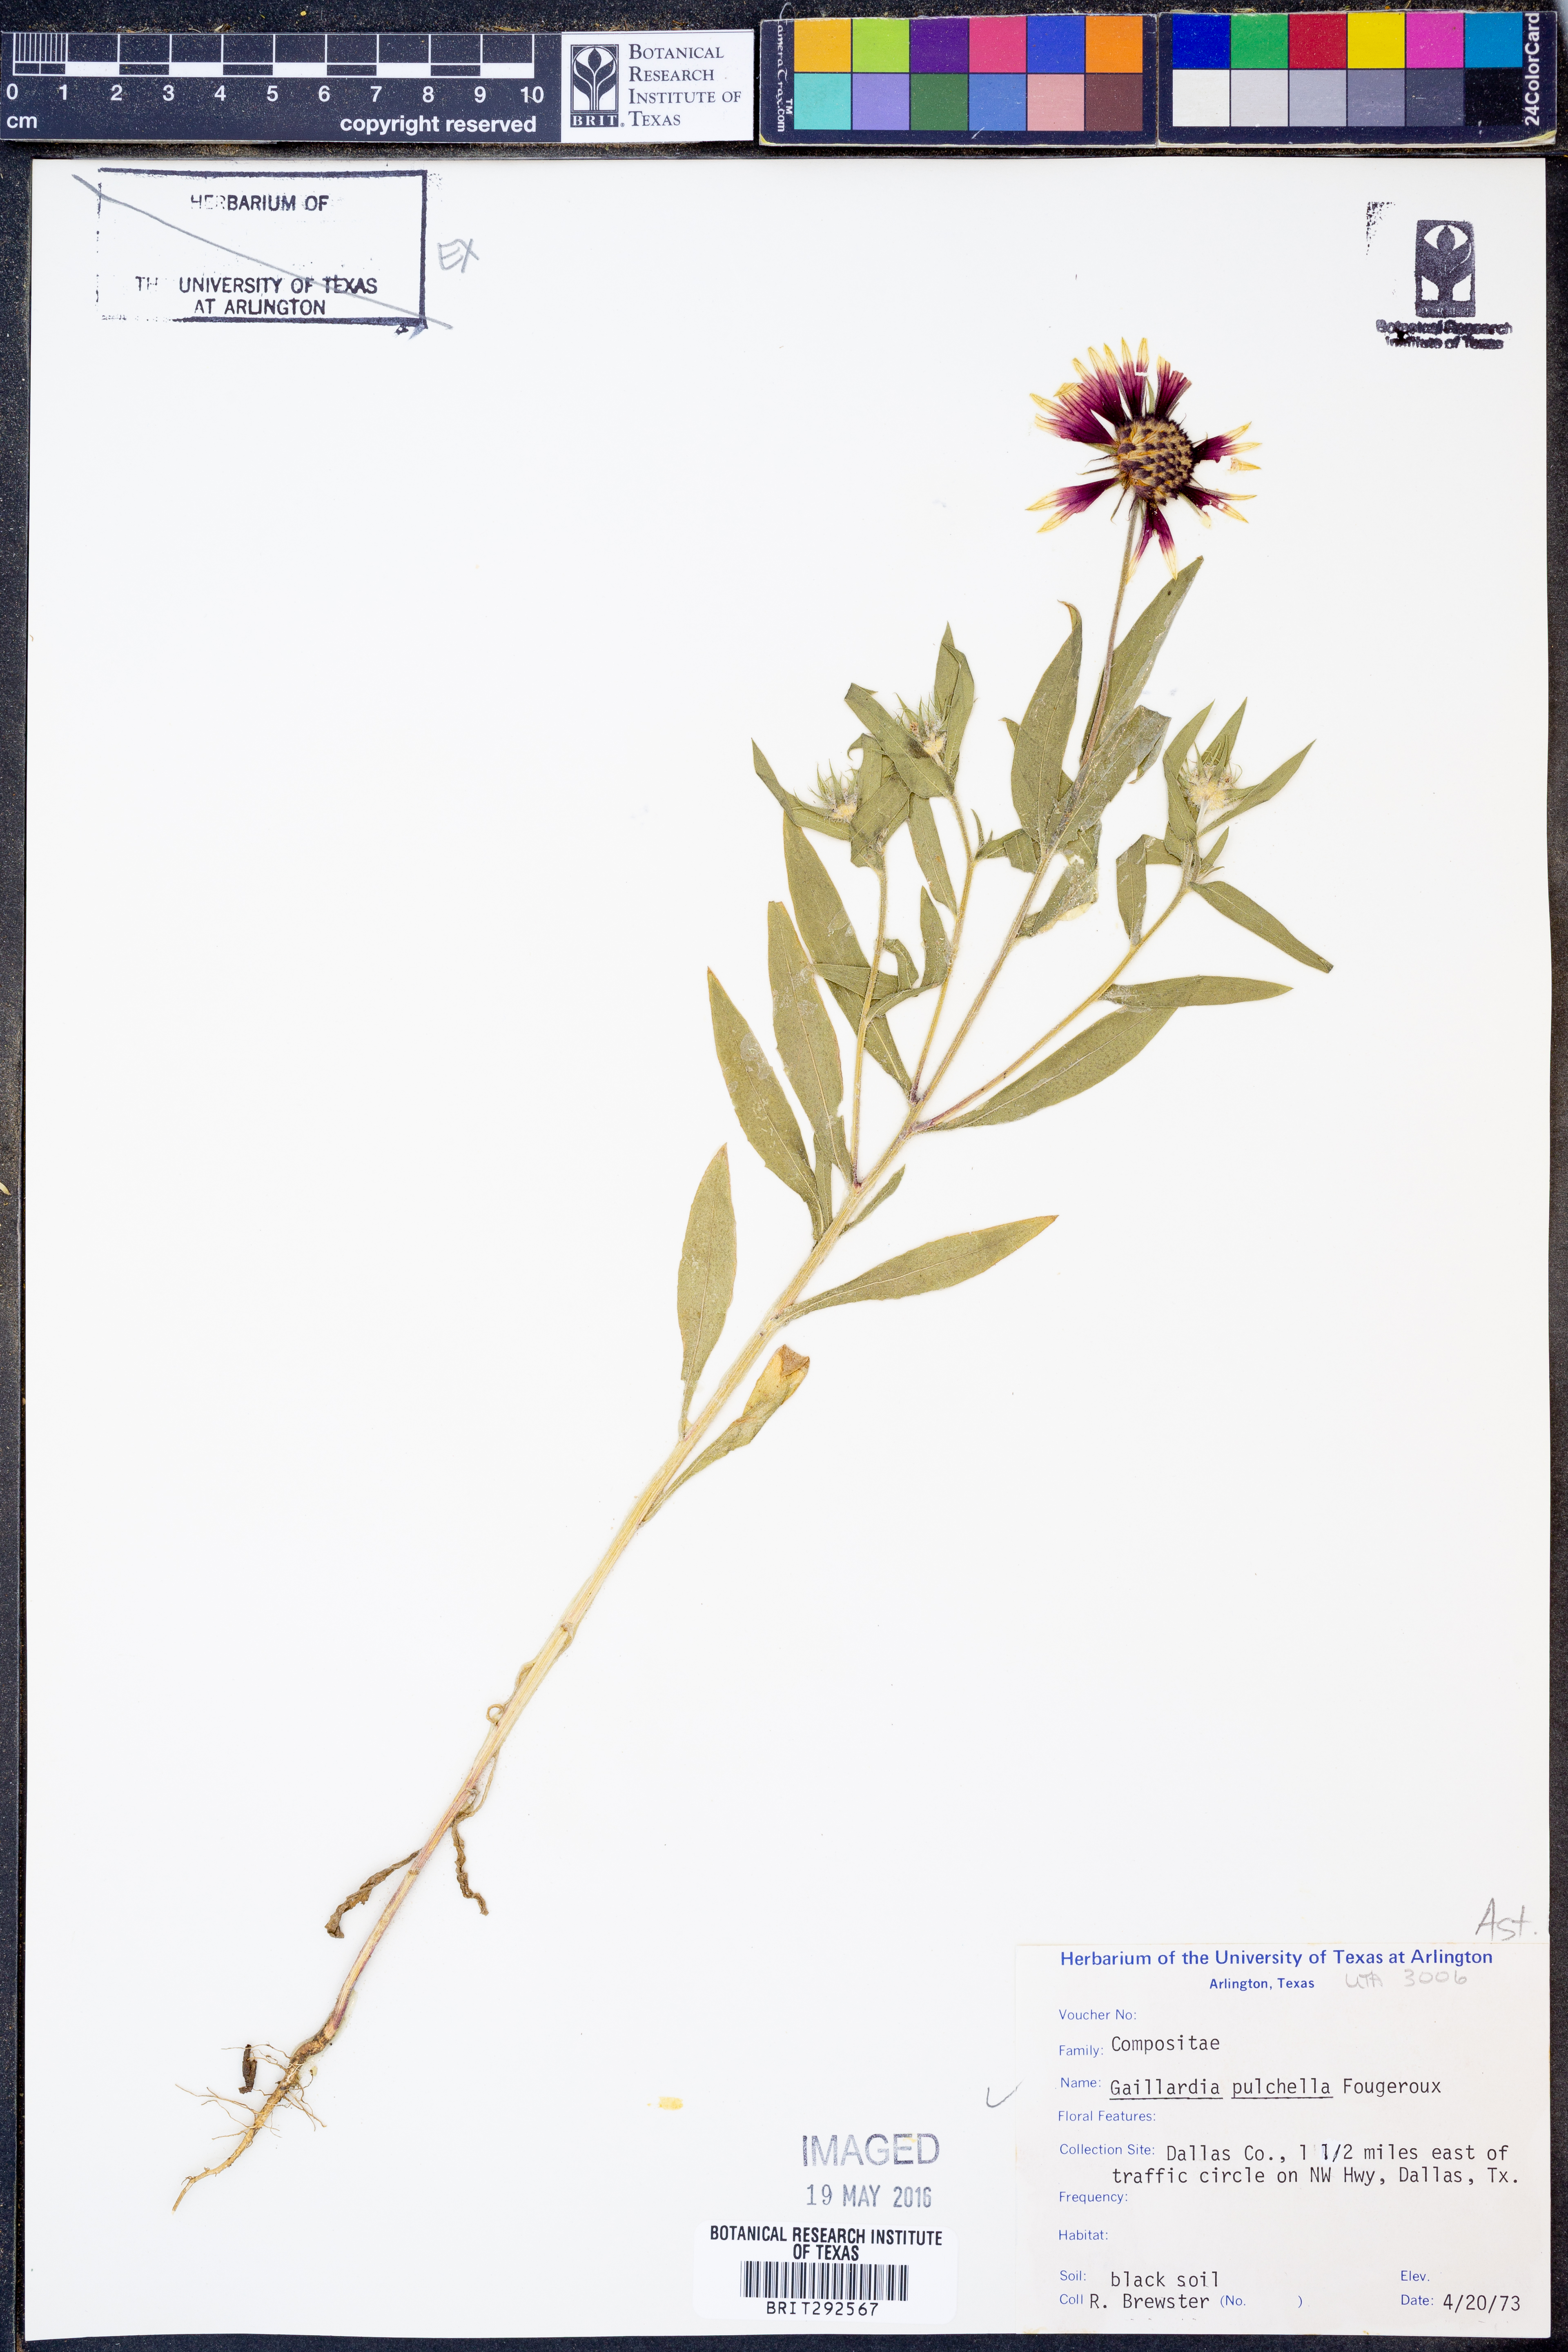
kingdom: Plantae
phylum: Tracheophyta
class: Magnoliopsida
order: Asterales
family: Asteraceae
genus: Gaillardia
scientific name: Gaillardia pulchella
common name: Firewheel
